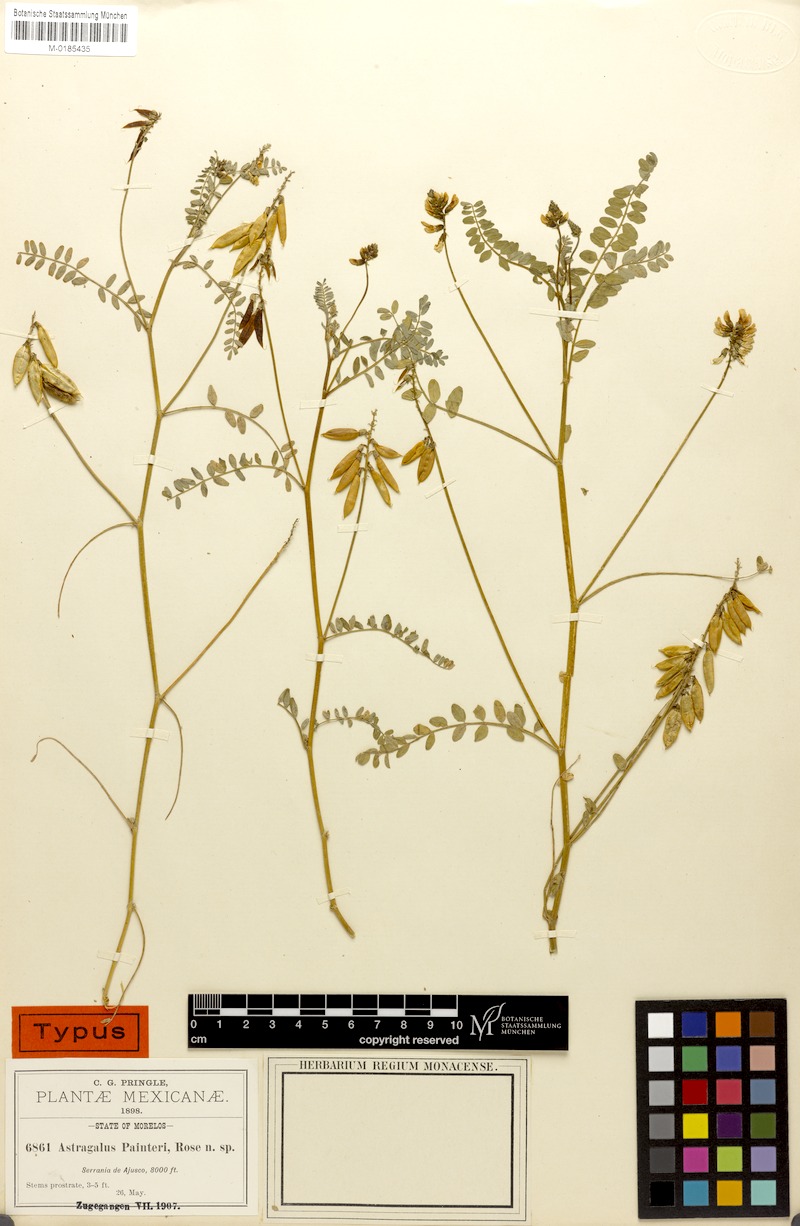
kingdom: Plantae
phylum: Tracheophyta
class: Magnoliopsida
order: Fabales
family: Fabaceae
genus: Astragalus
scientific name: Astragalus guatemalensis
